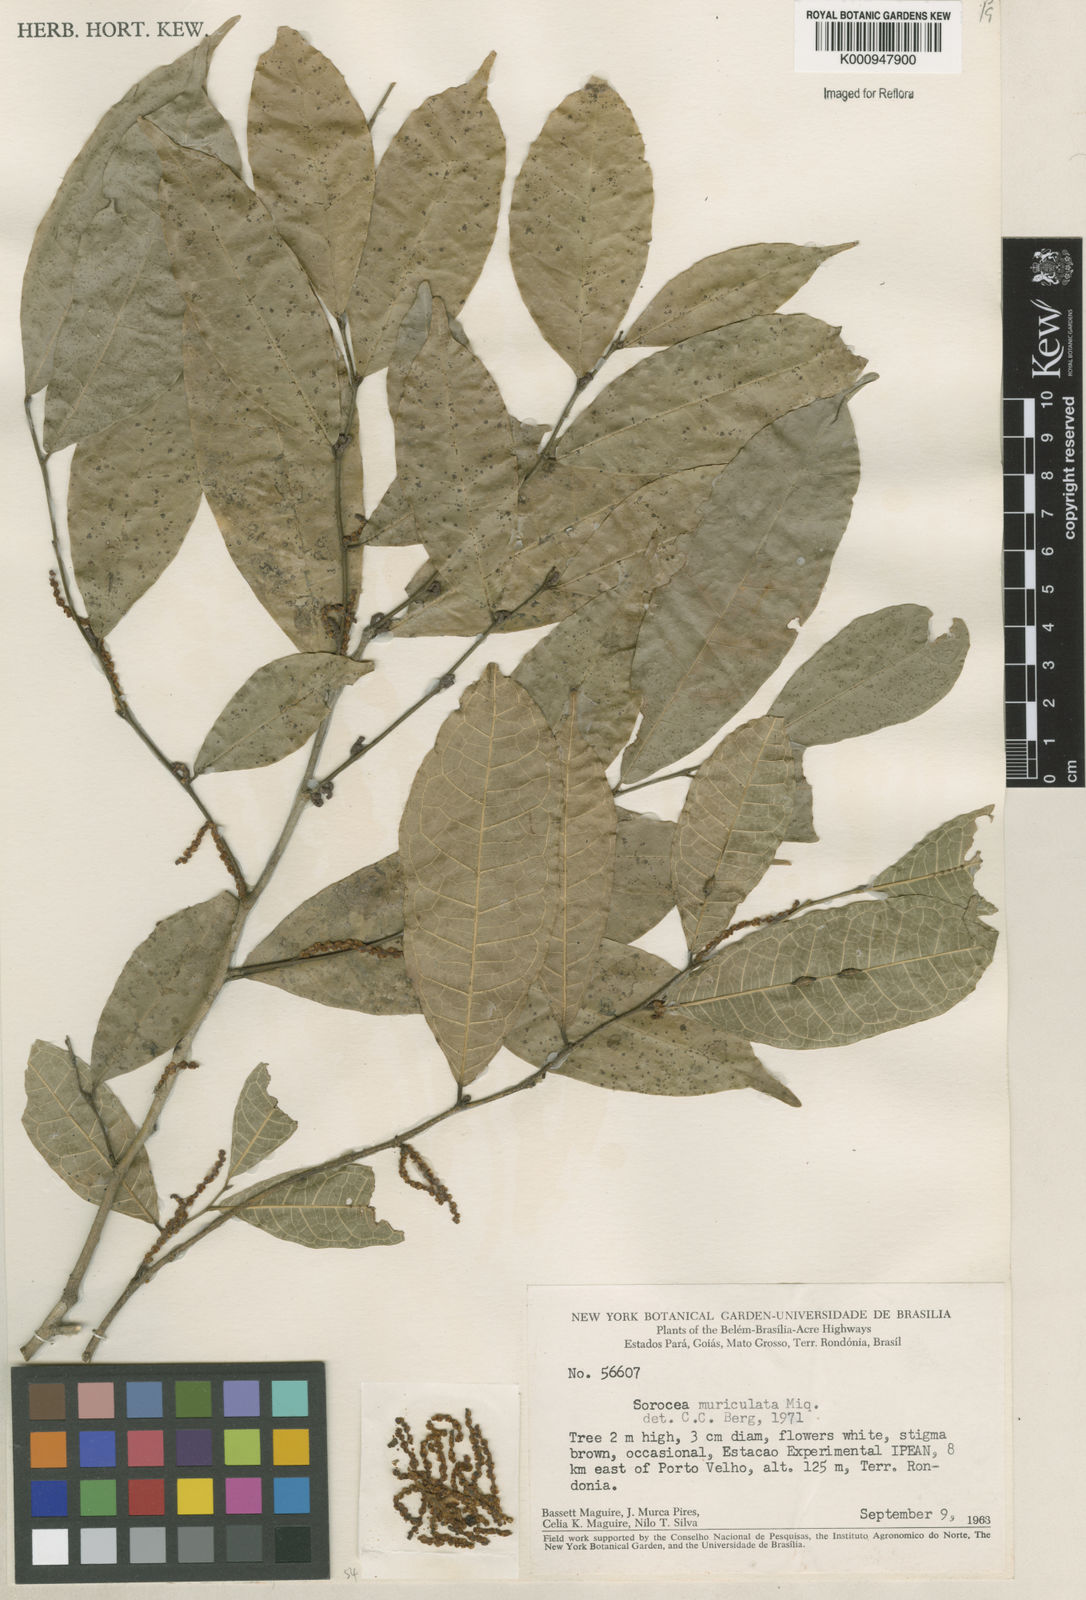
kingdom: Plantae
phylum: Tracheophyta
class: Magnoliopsida
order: Rosales
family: Moraceae
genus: Sorocea
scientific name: Sorocea muriculata
